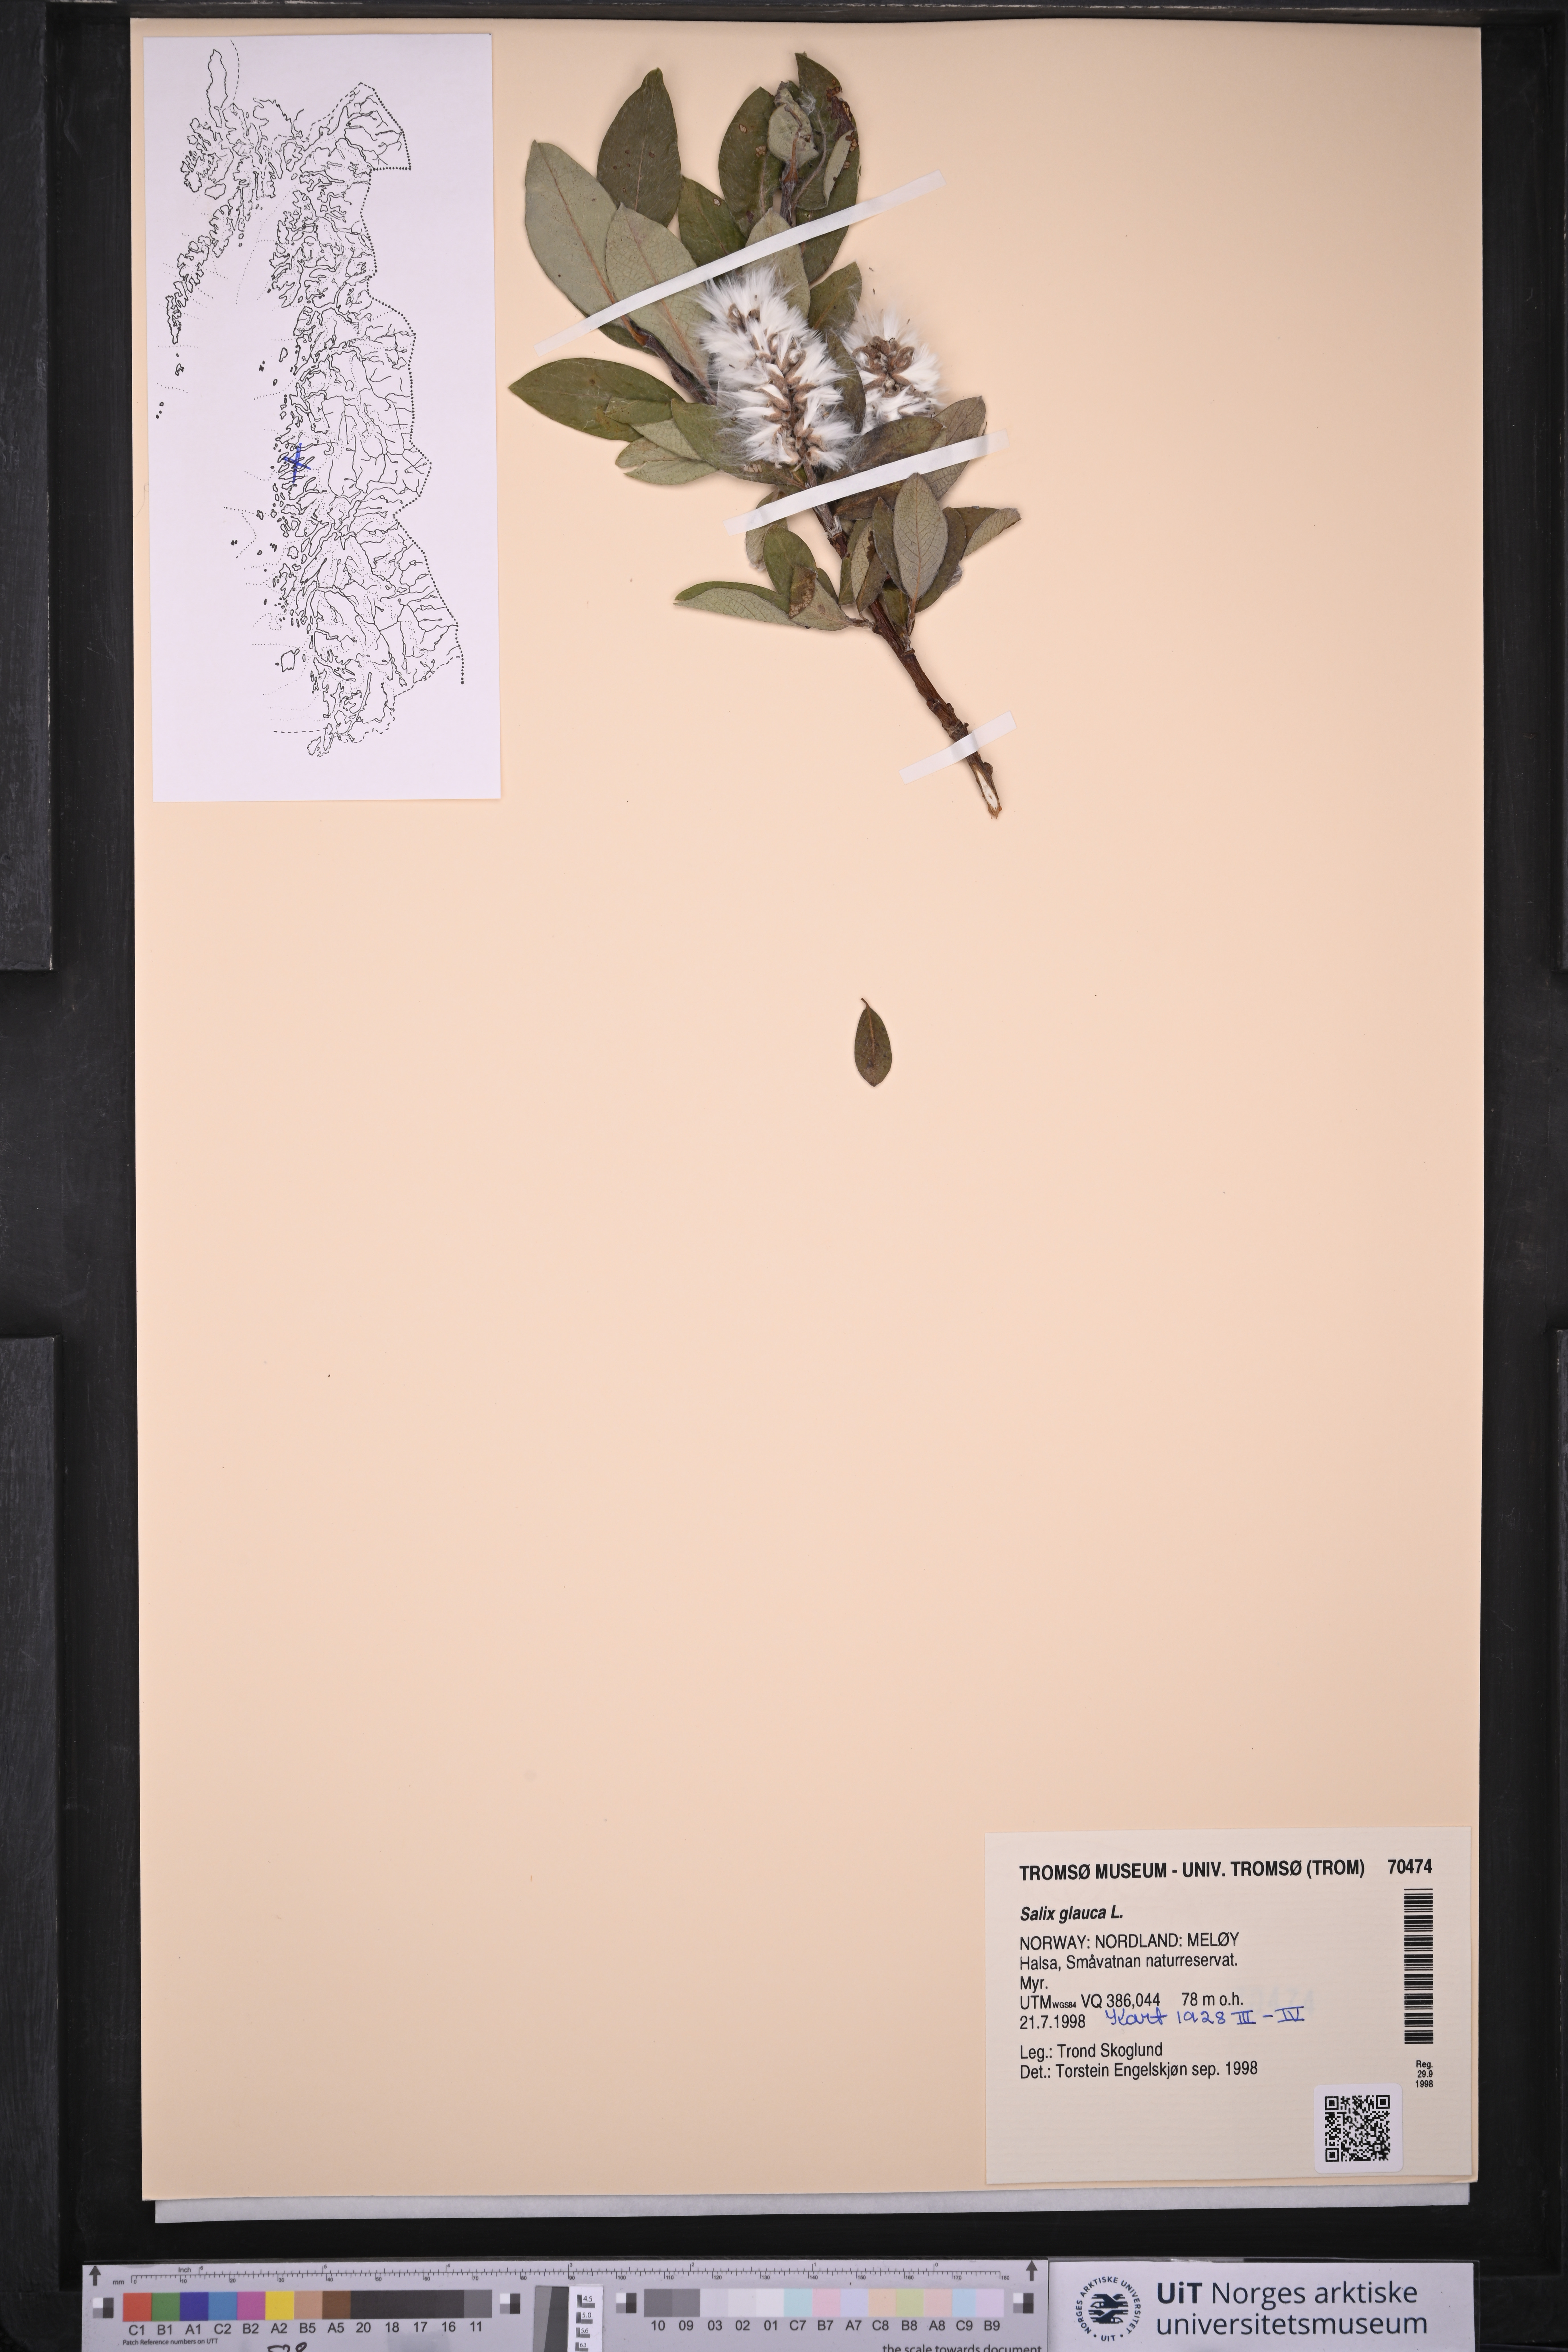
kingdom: Plantae
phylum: Tracheophyta
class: Magnoliopsida
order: Malpighiales
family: Salicaceae
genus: Salix
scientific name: Salix glauca
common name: Glaucous willow
